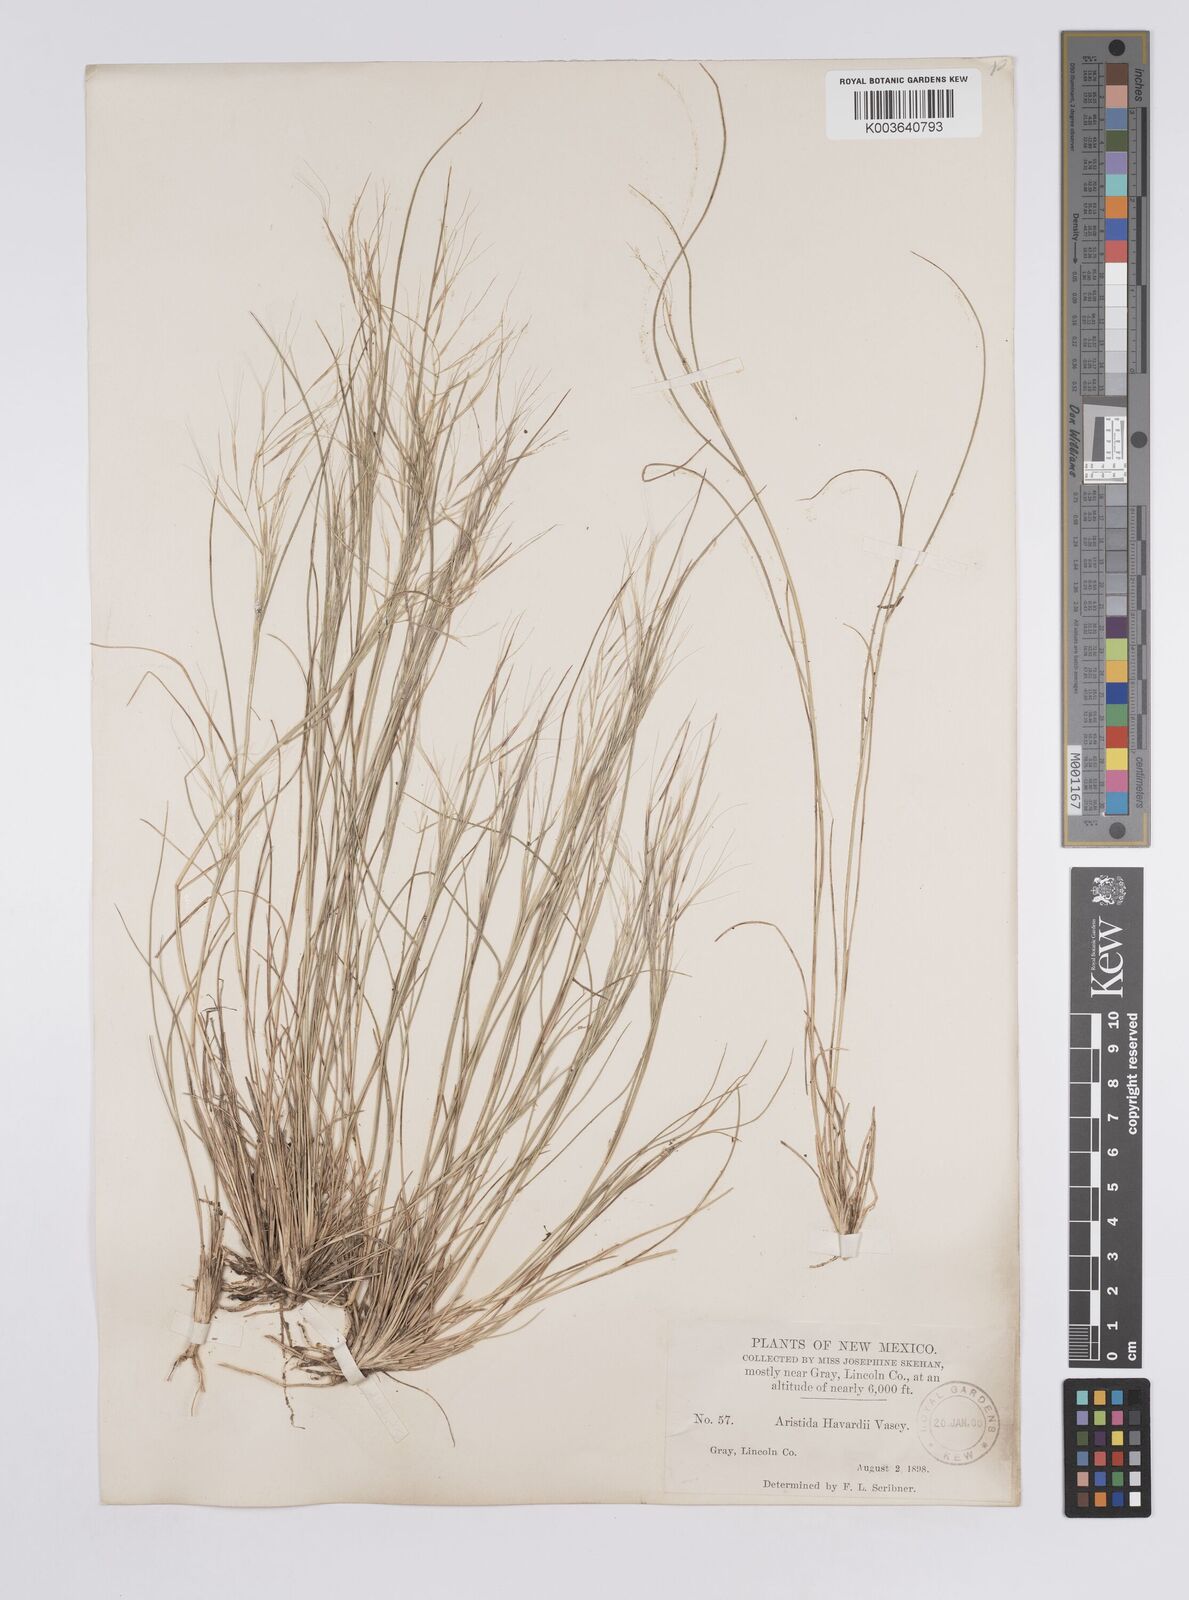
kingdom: Plantae
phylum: Tracheophyta
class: Liliopsida
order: Poales
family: Poaceae
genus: Aristida
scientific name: Aristida havardii
